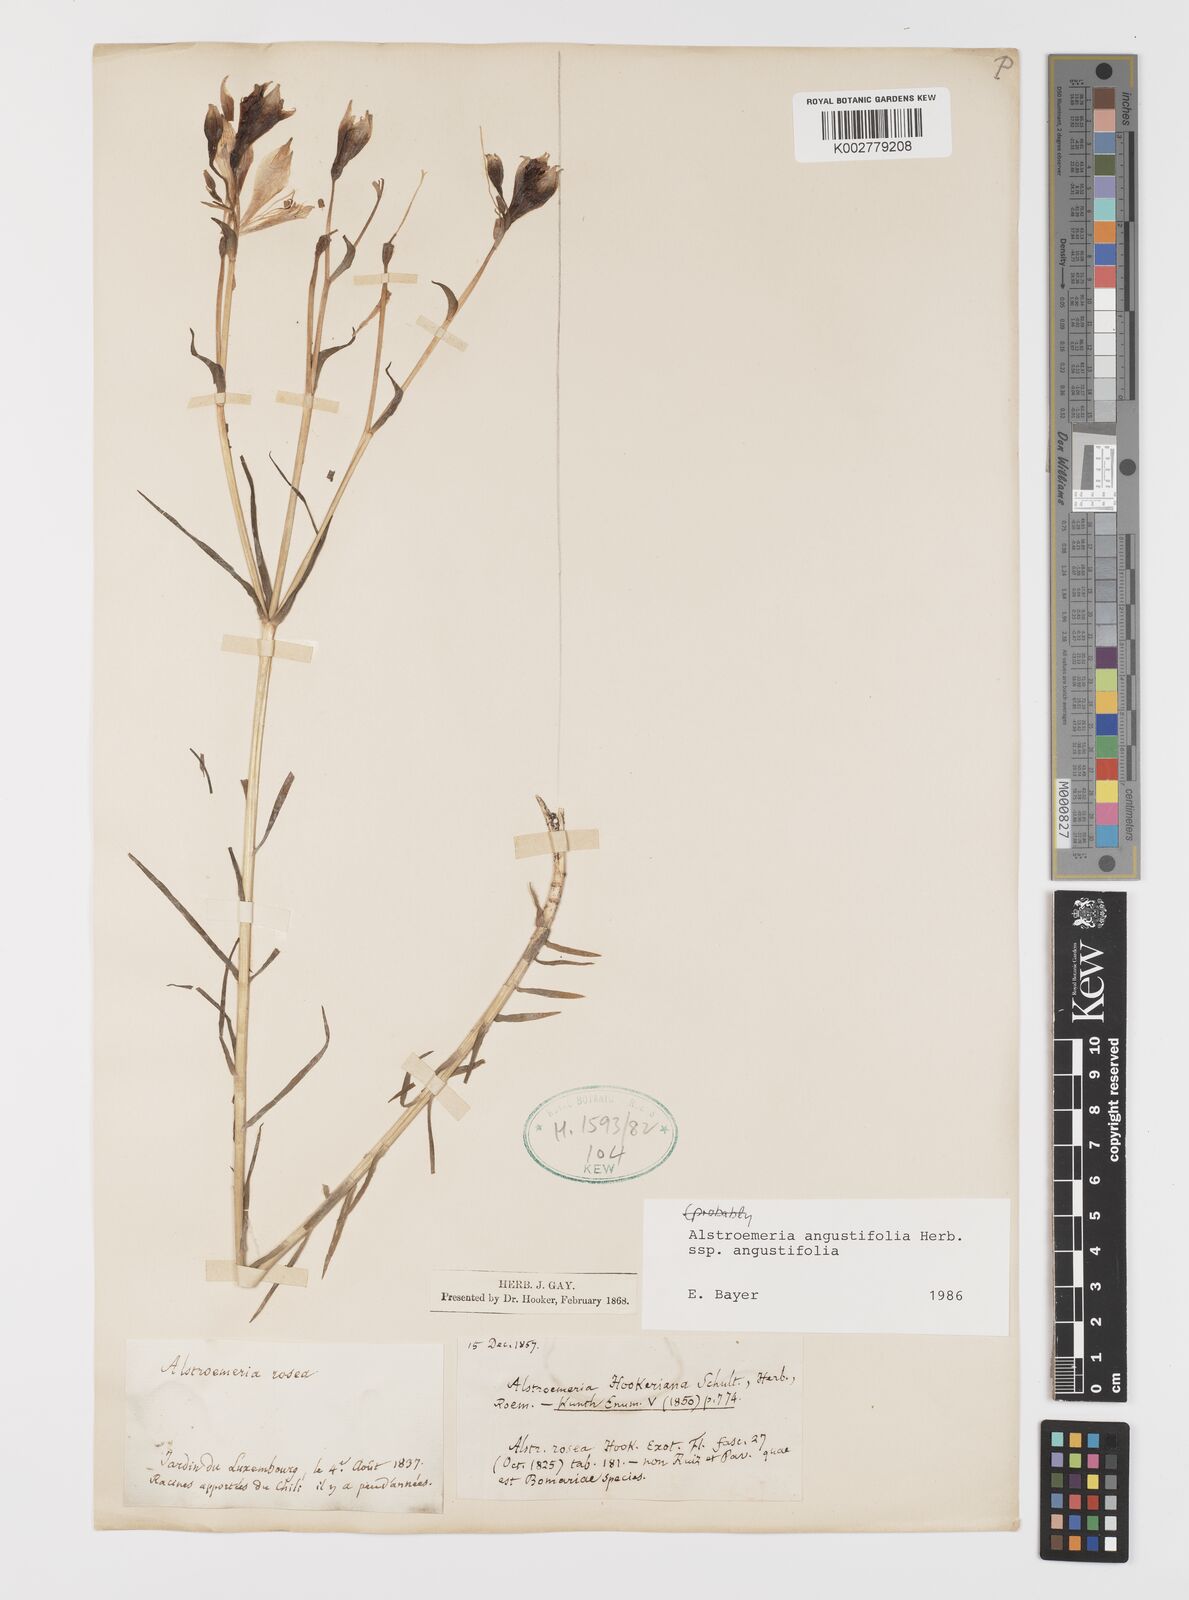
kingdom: Plantae
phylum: Tracheophyta
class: Liliopsida
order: Liliales
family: Alstroemeriaceae
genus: Alstroemeria
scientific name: Alstroemeria angustifolia
